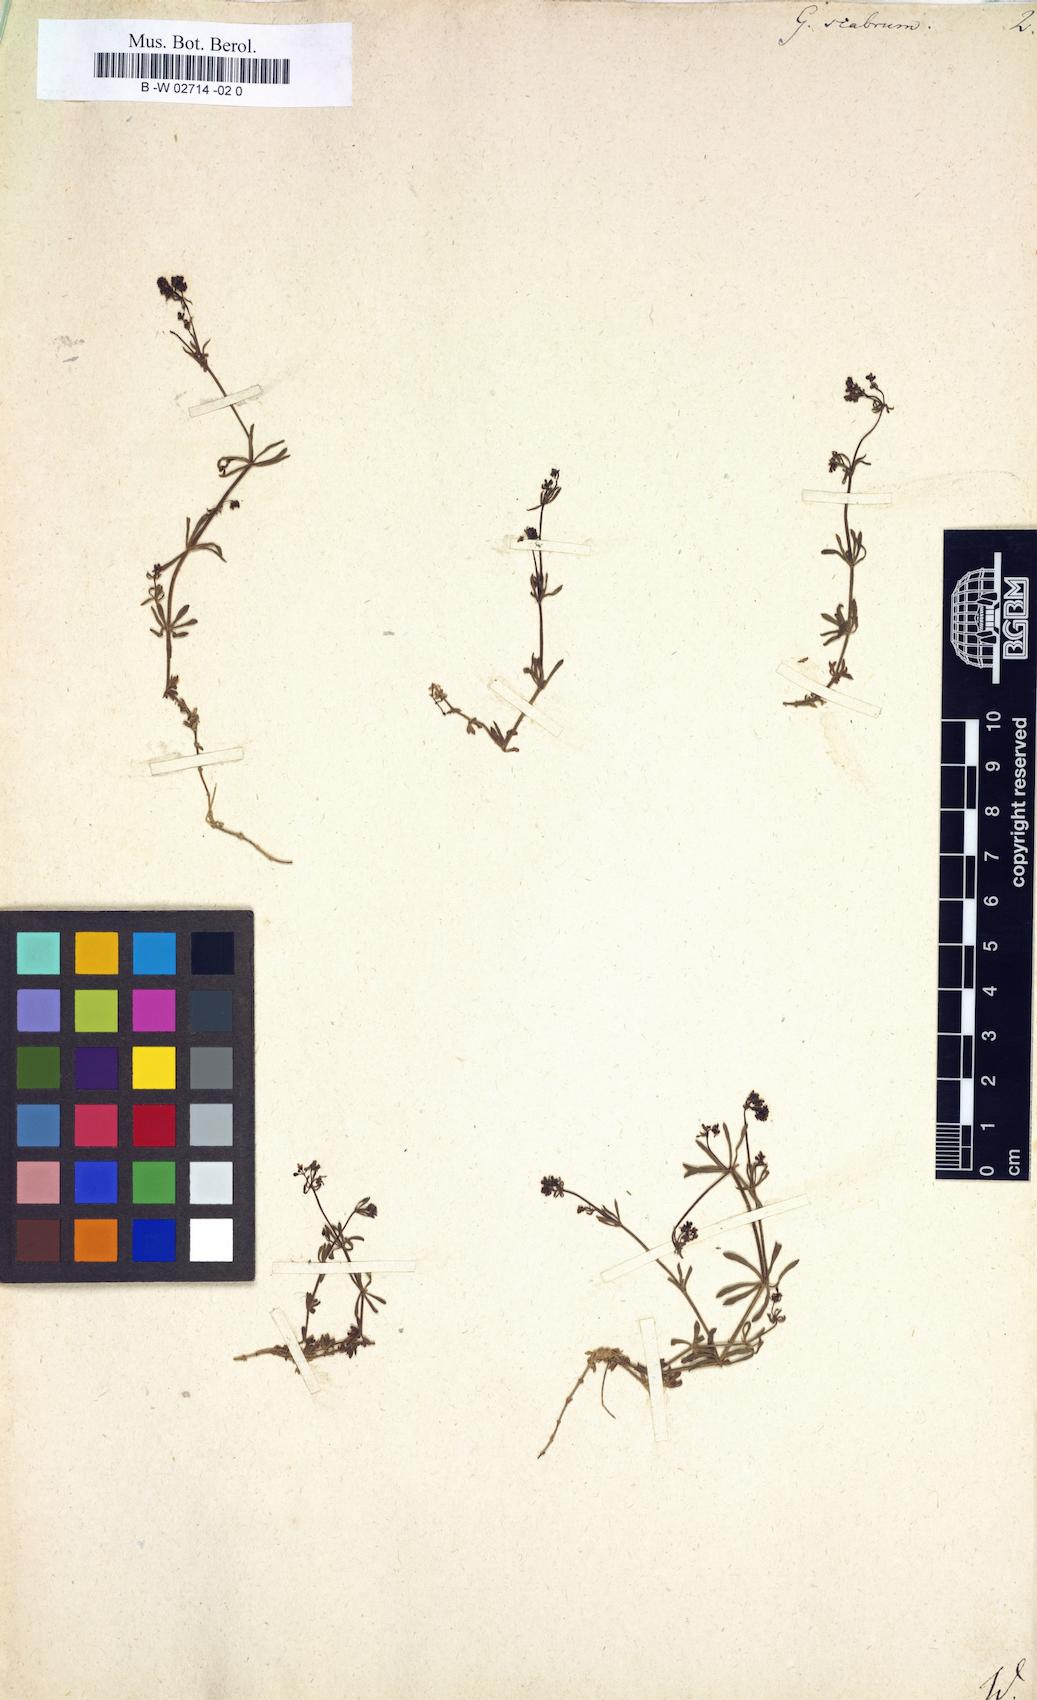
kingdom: Plantae
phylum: Tracheophyta
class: Magnoliopsida
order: Gentianales
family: Rubiaceae
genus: Galium
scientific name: Galium scabrum
